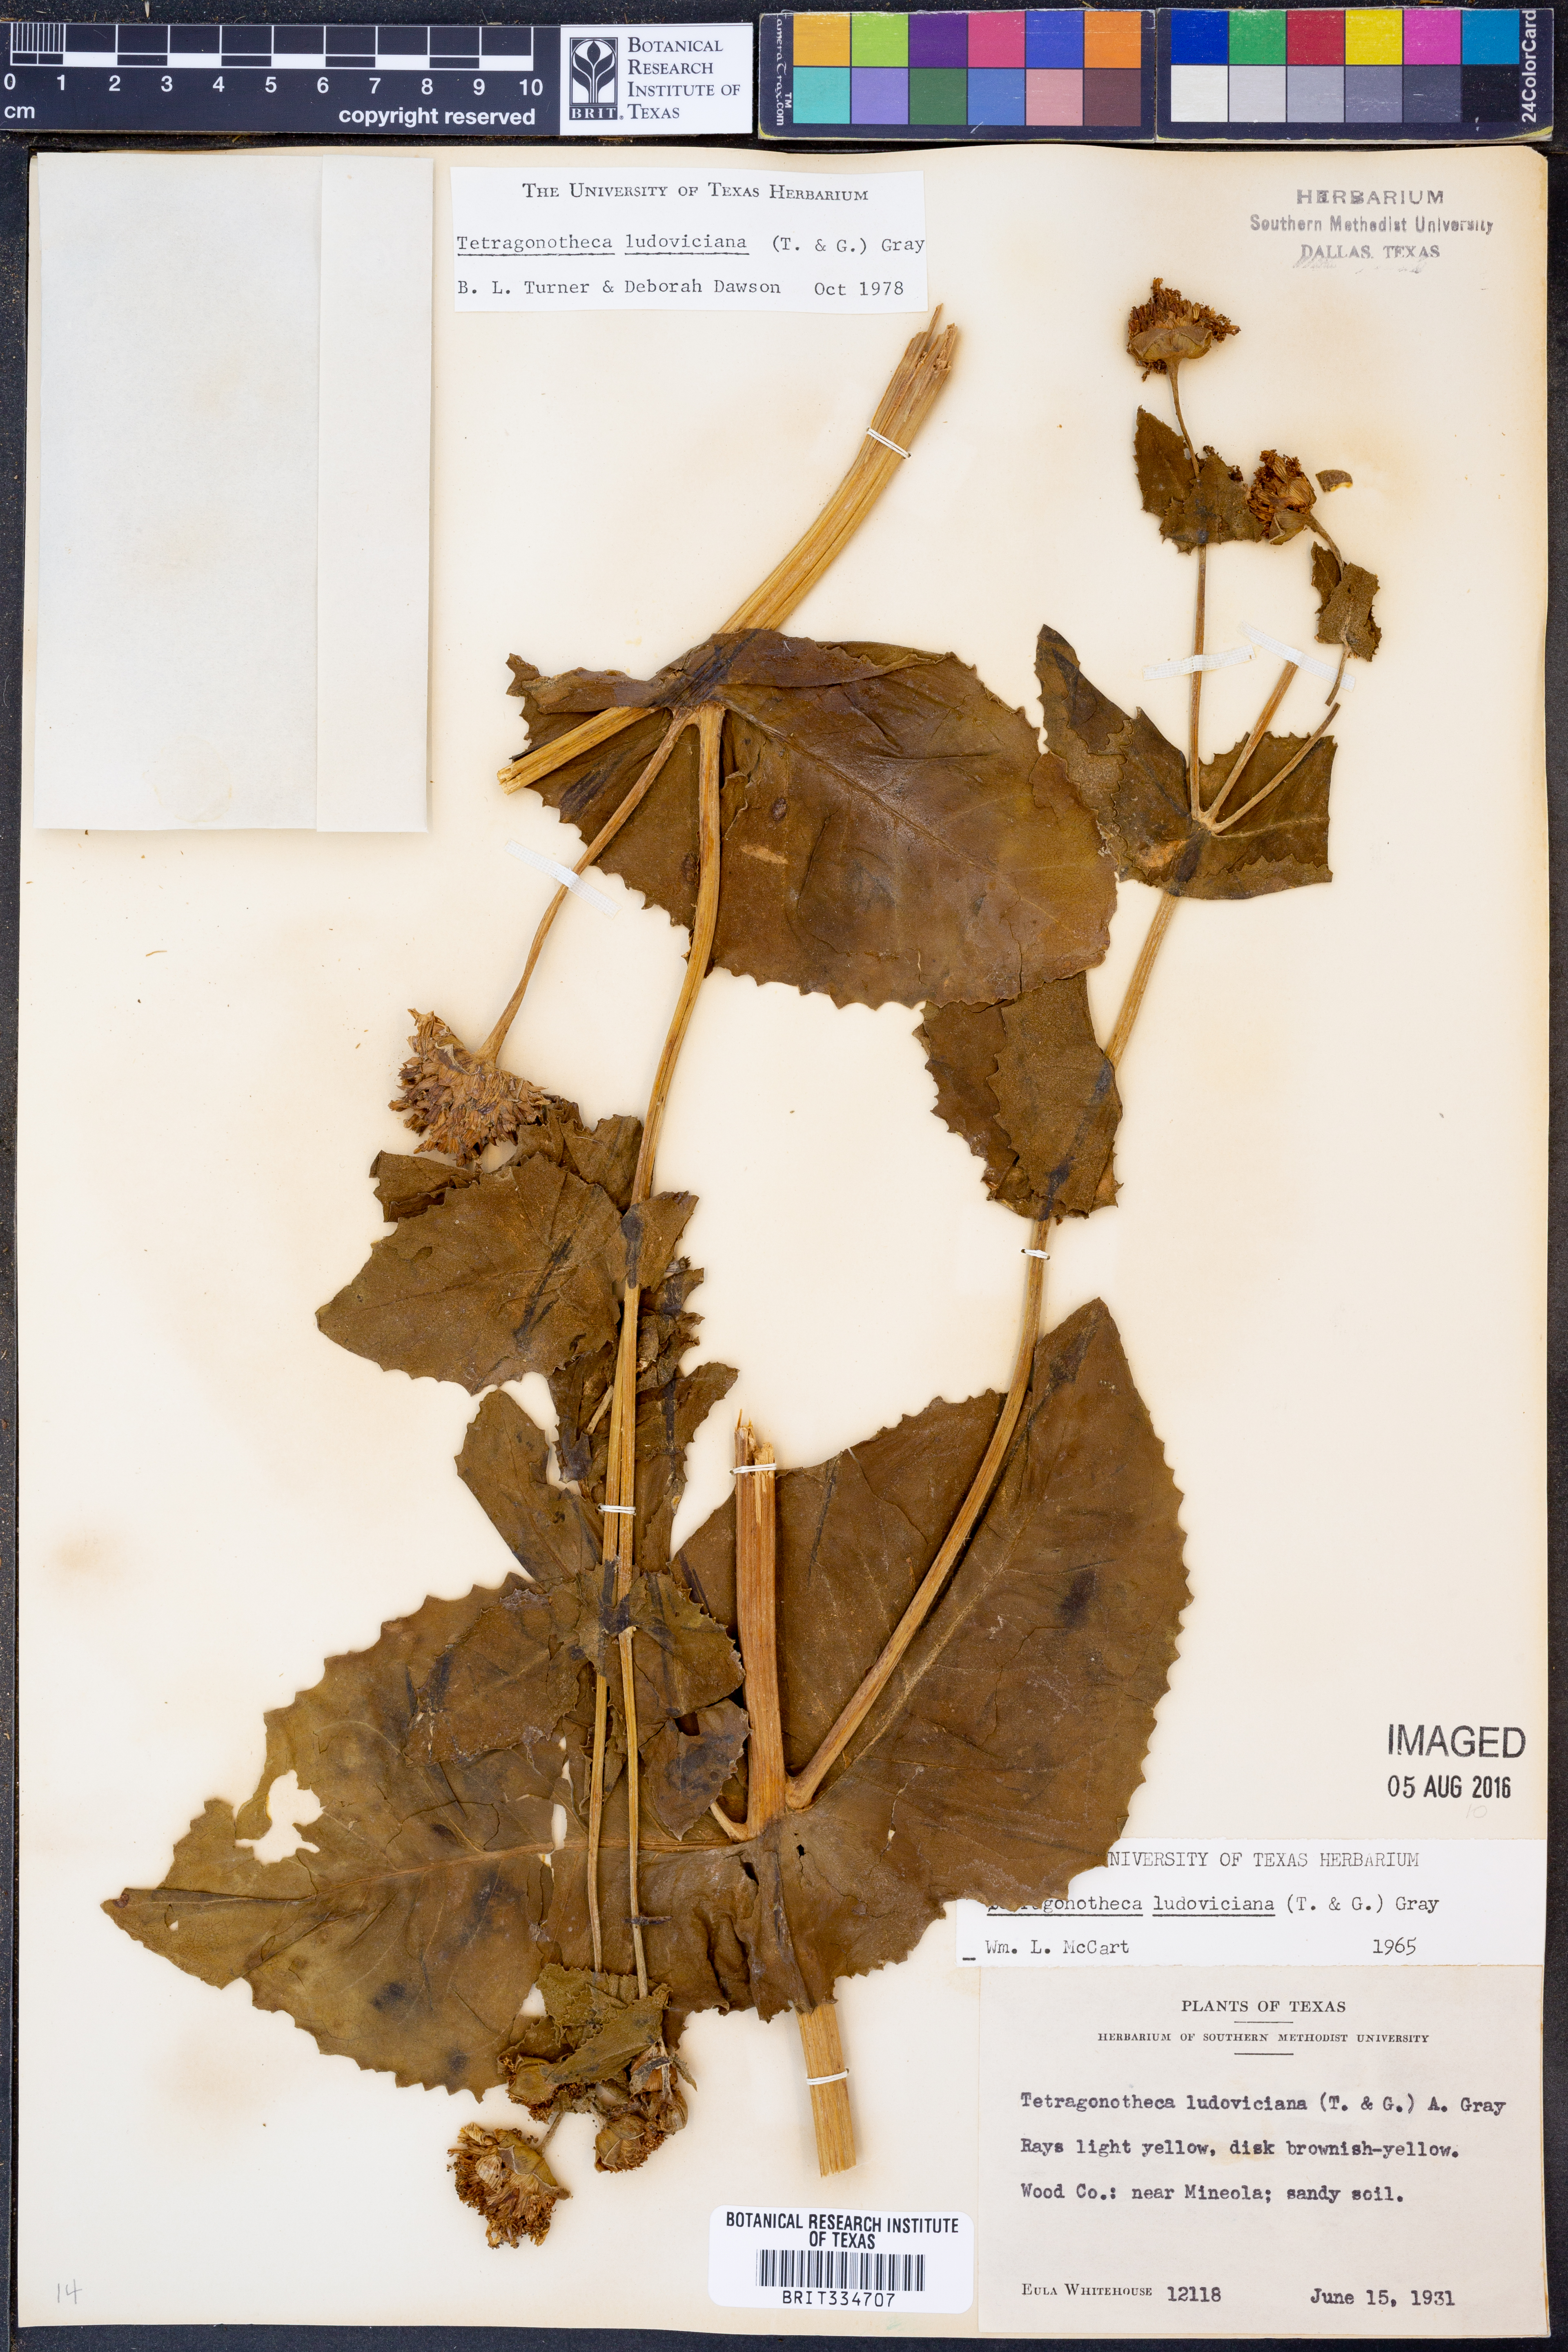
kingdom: Plantae
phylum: Tracheophyta
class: Magnoliopsida
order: Asterales
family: Asteraceae
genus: Tetragonotheca
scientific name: Tetragonotheca ludoviciana
